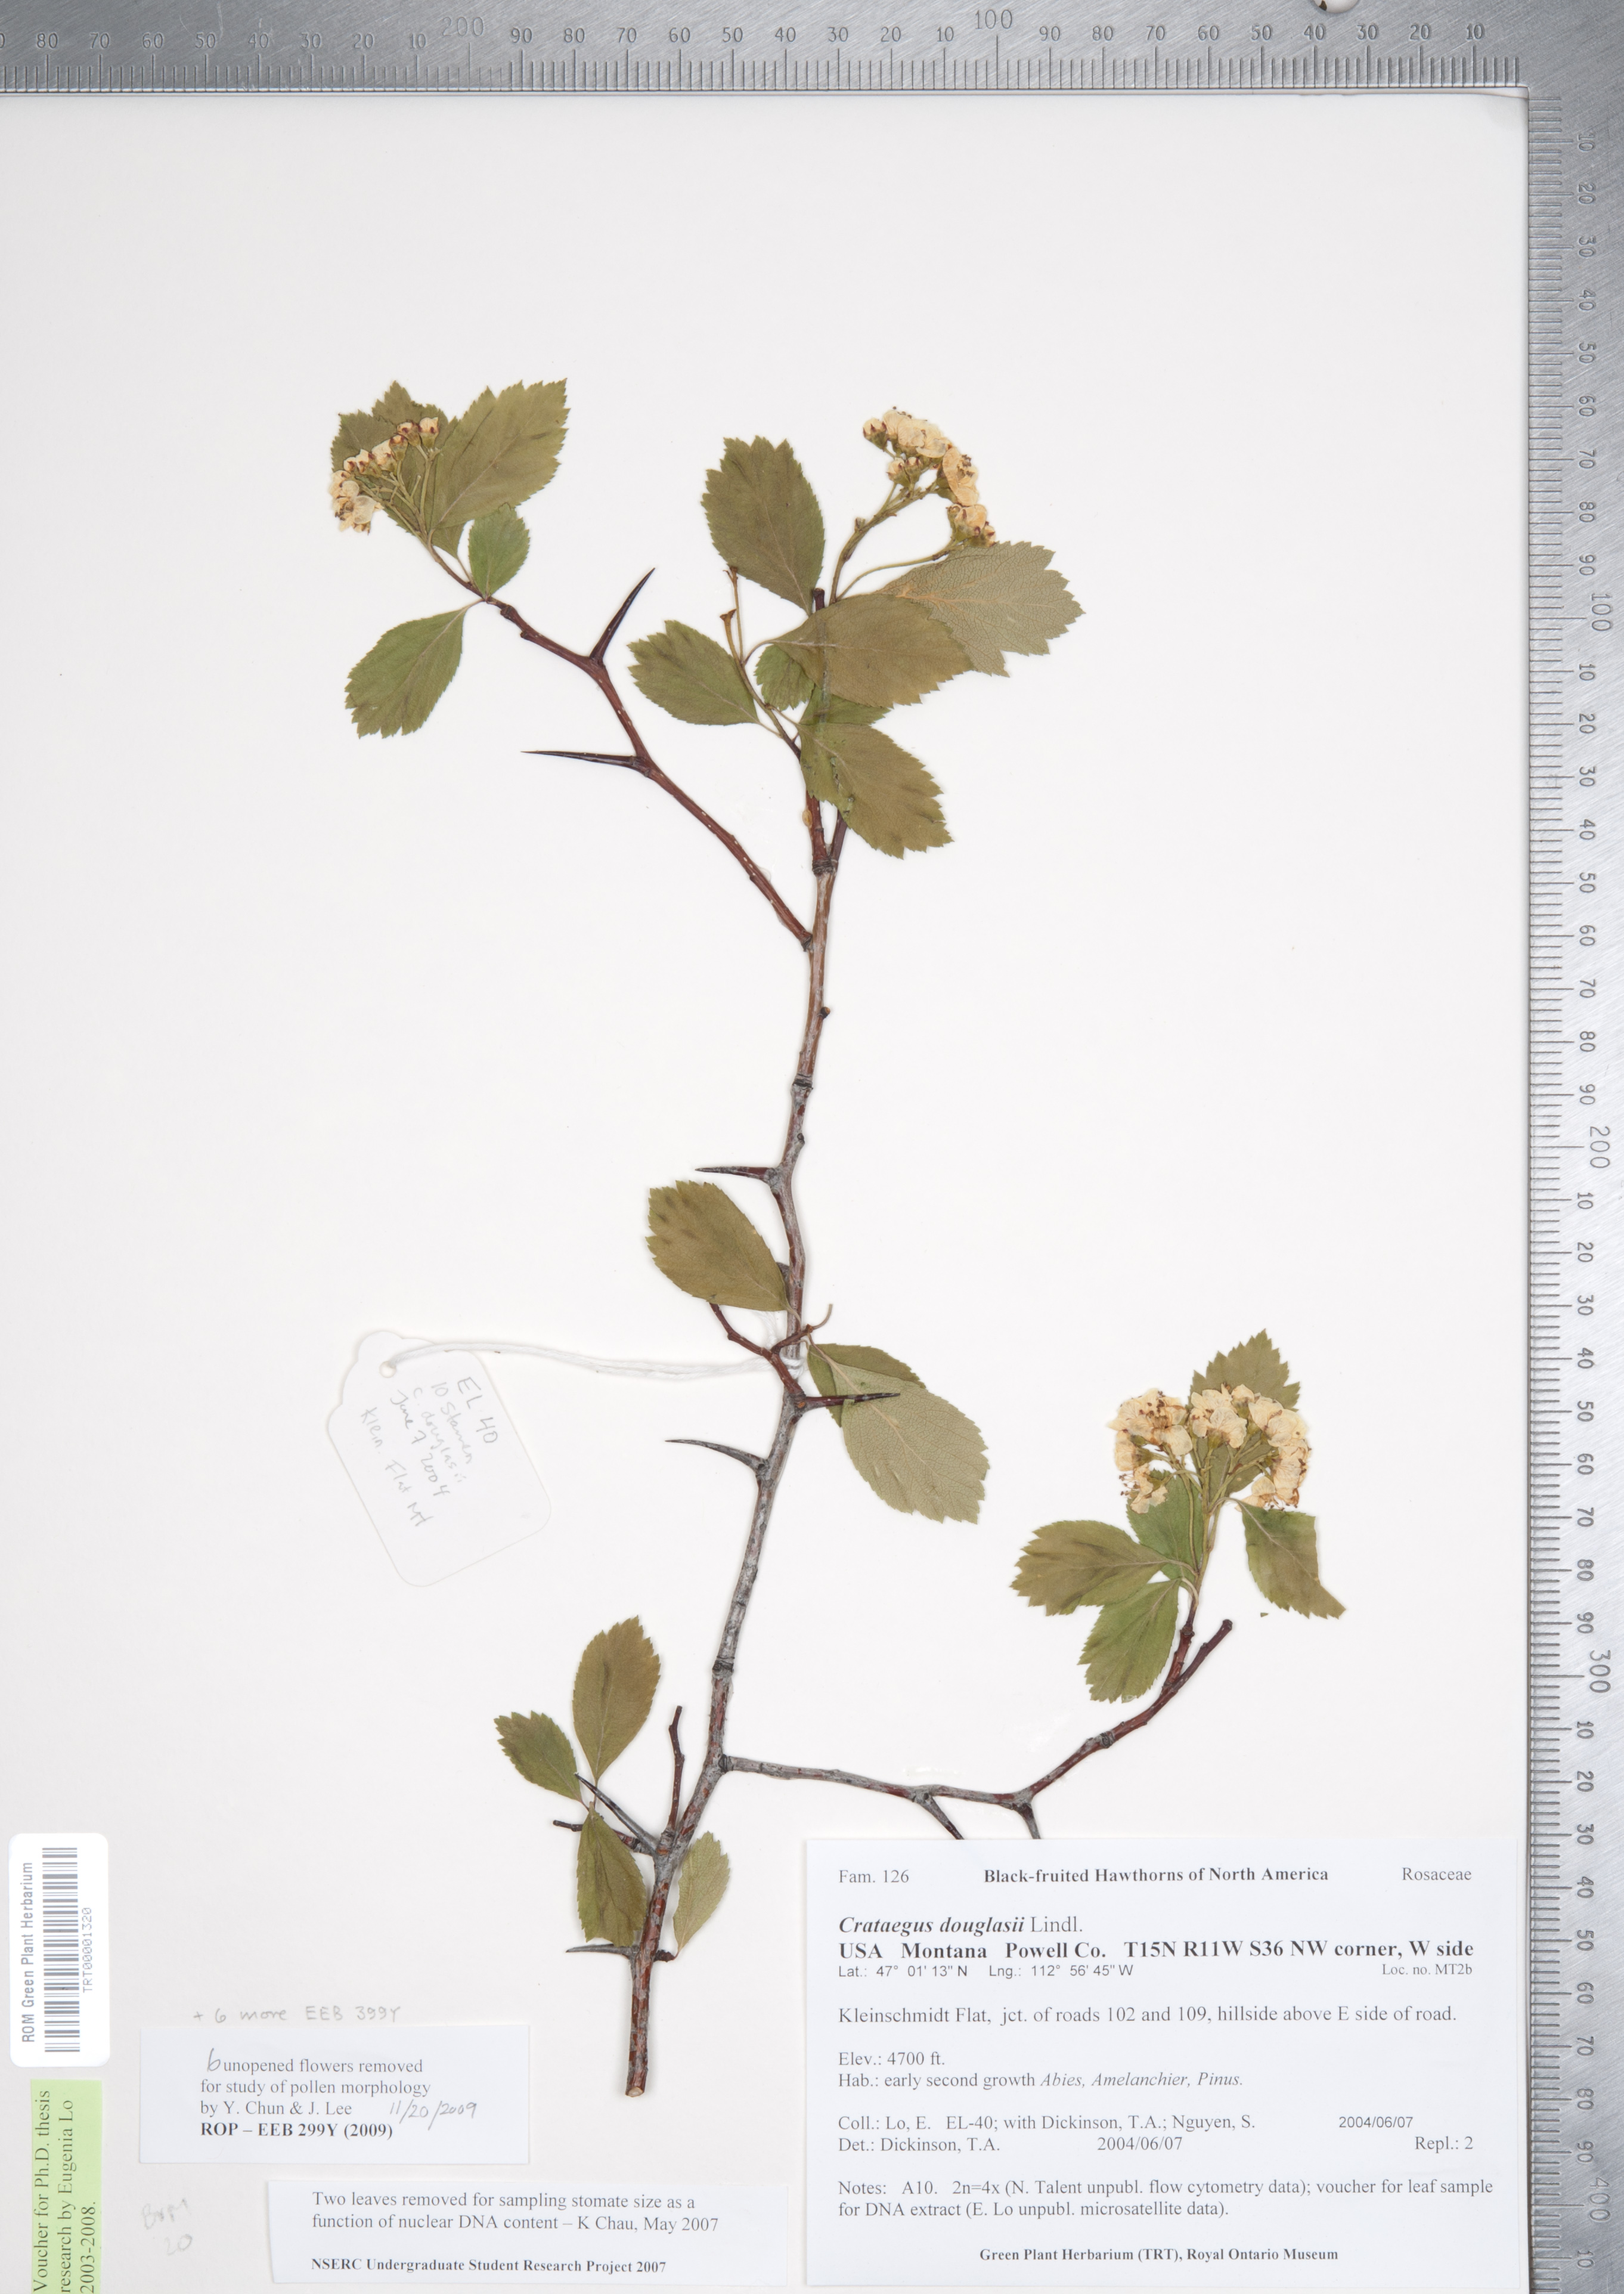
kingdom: Plantae
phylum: Tracheophyta
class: Magnoliopsida
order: Rosales
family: Rosaceae
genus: Crataegus
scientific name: Crataegus douglasii
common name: Black hawthorn
